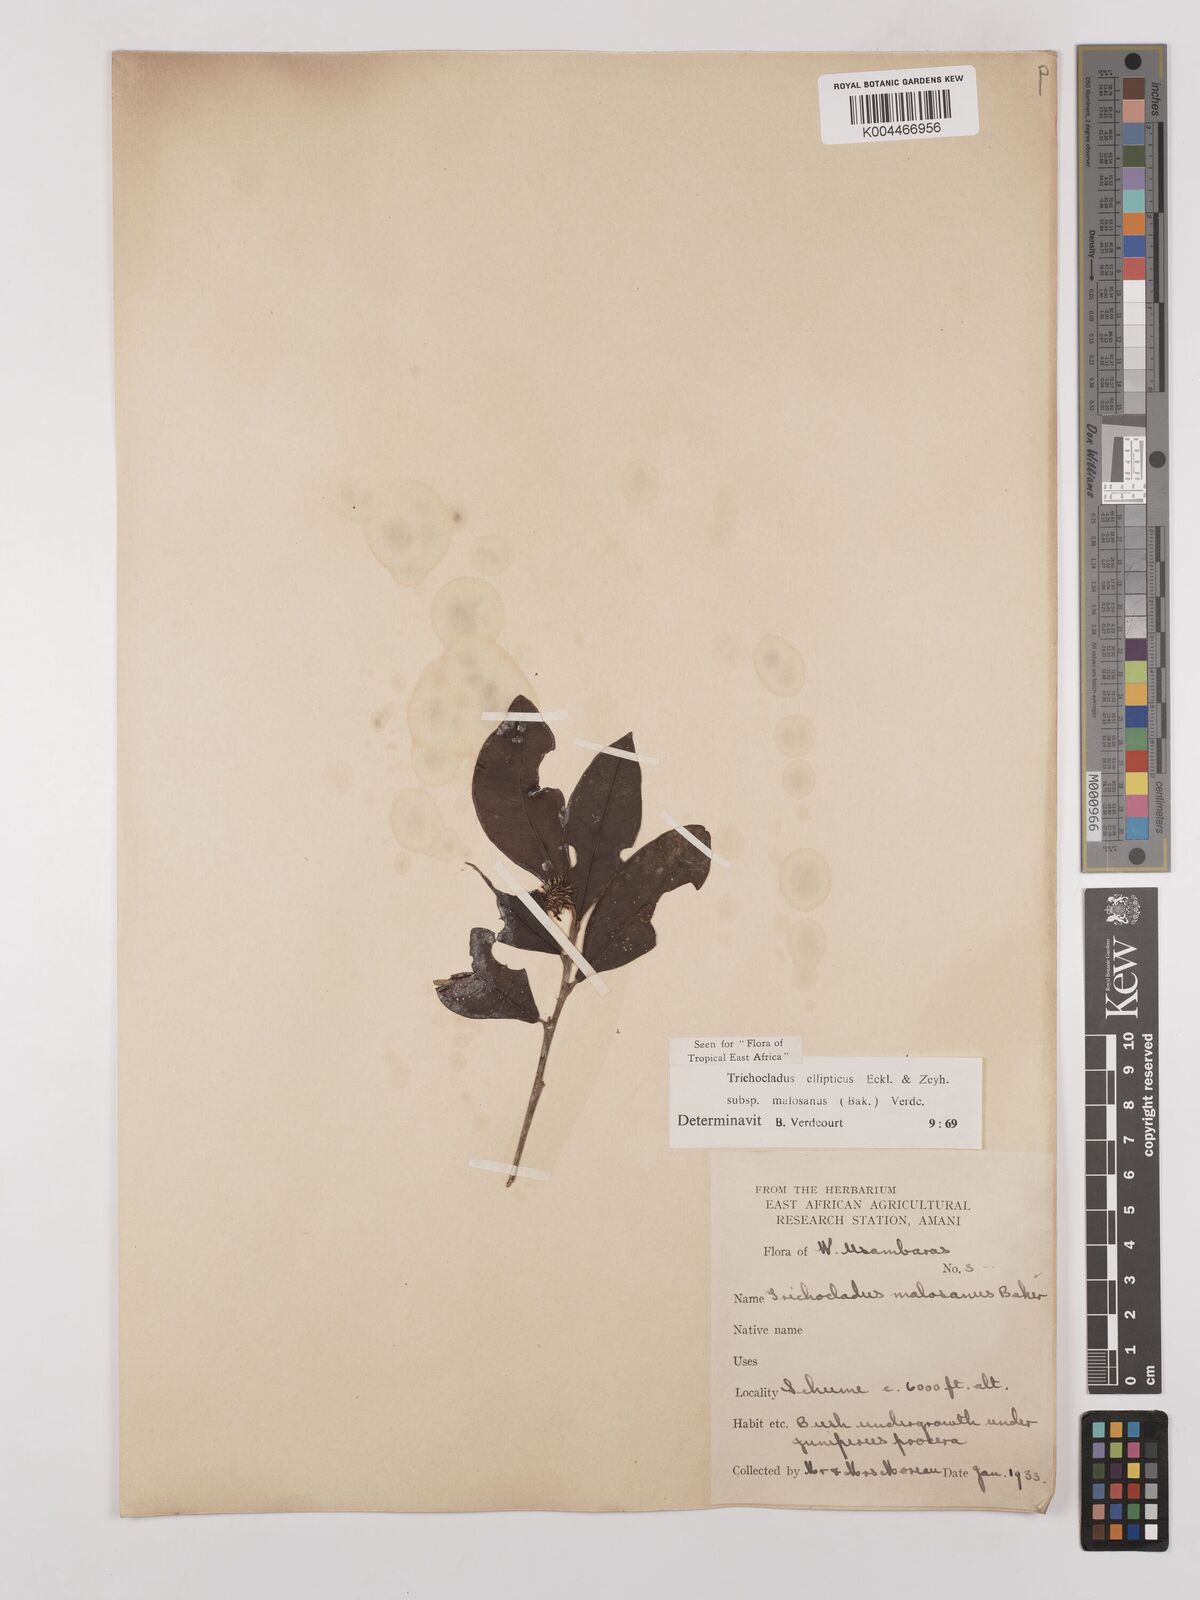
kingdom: Plantae
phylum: Tracheophyta
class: Magnoliopsida
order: Saxifragales
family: Hamamelidaceae
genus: Trichocladus
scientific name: Trichocladus ellipticus
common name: White witch-hazel
